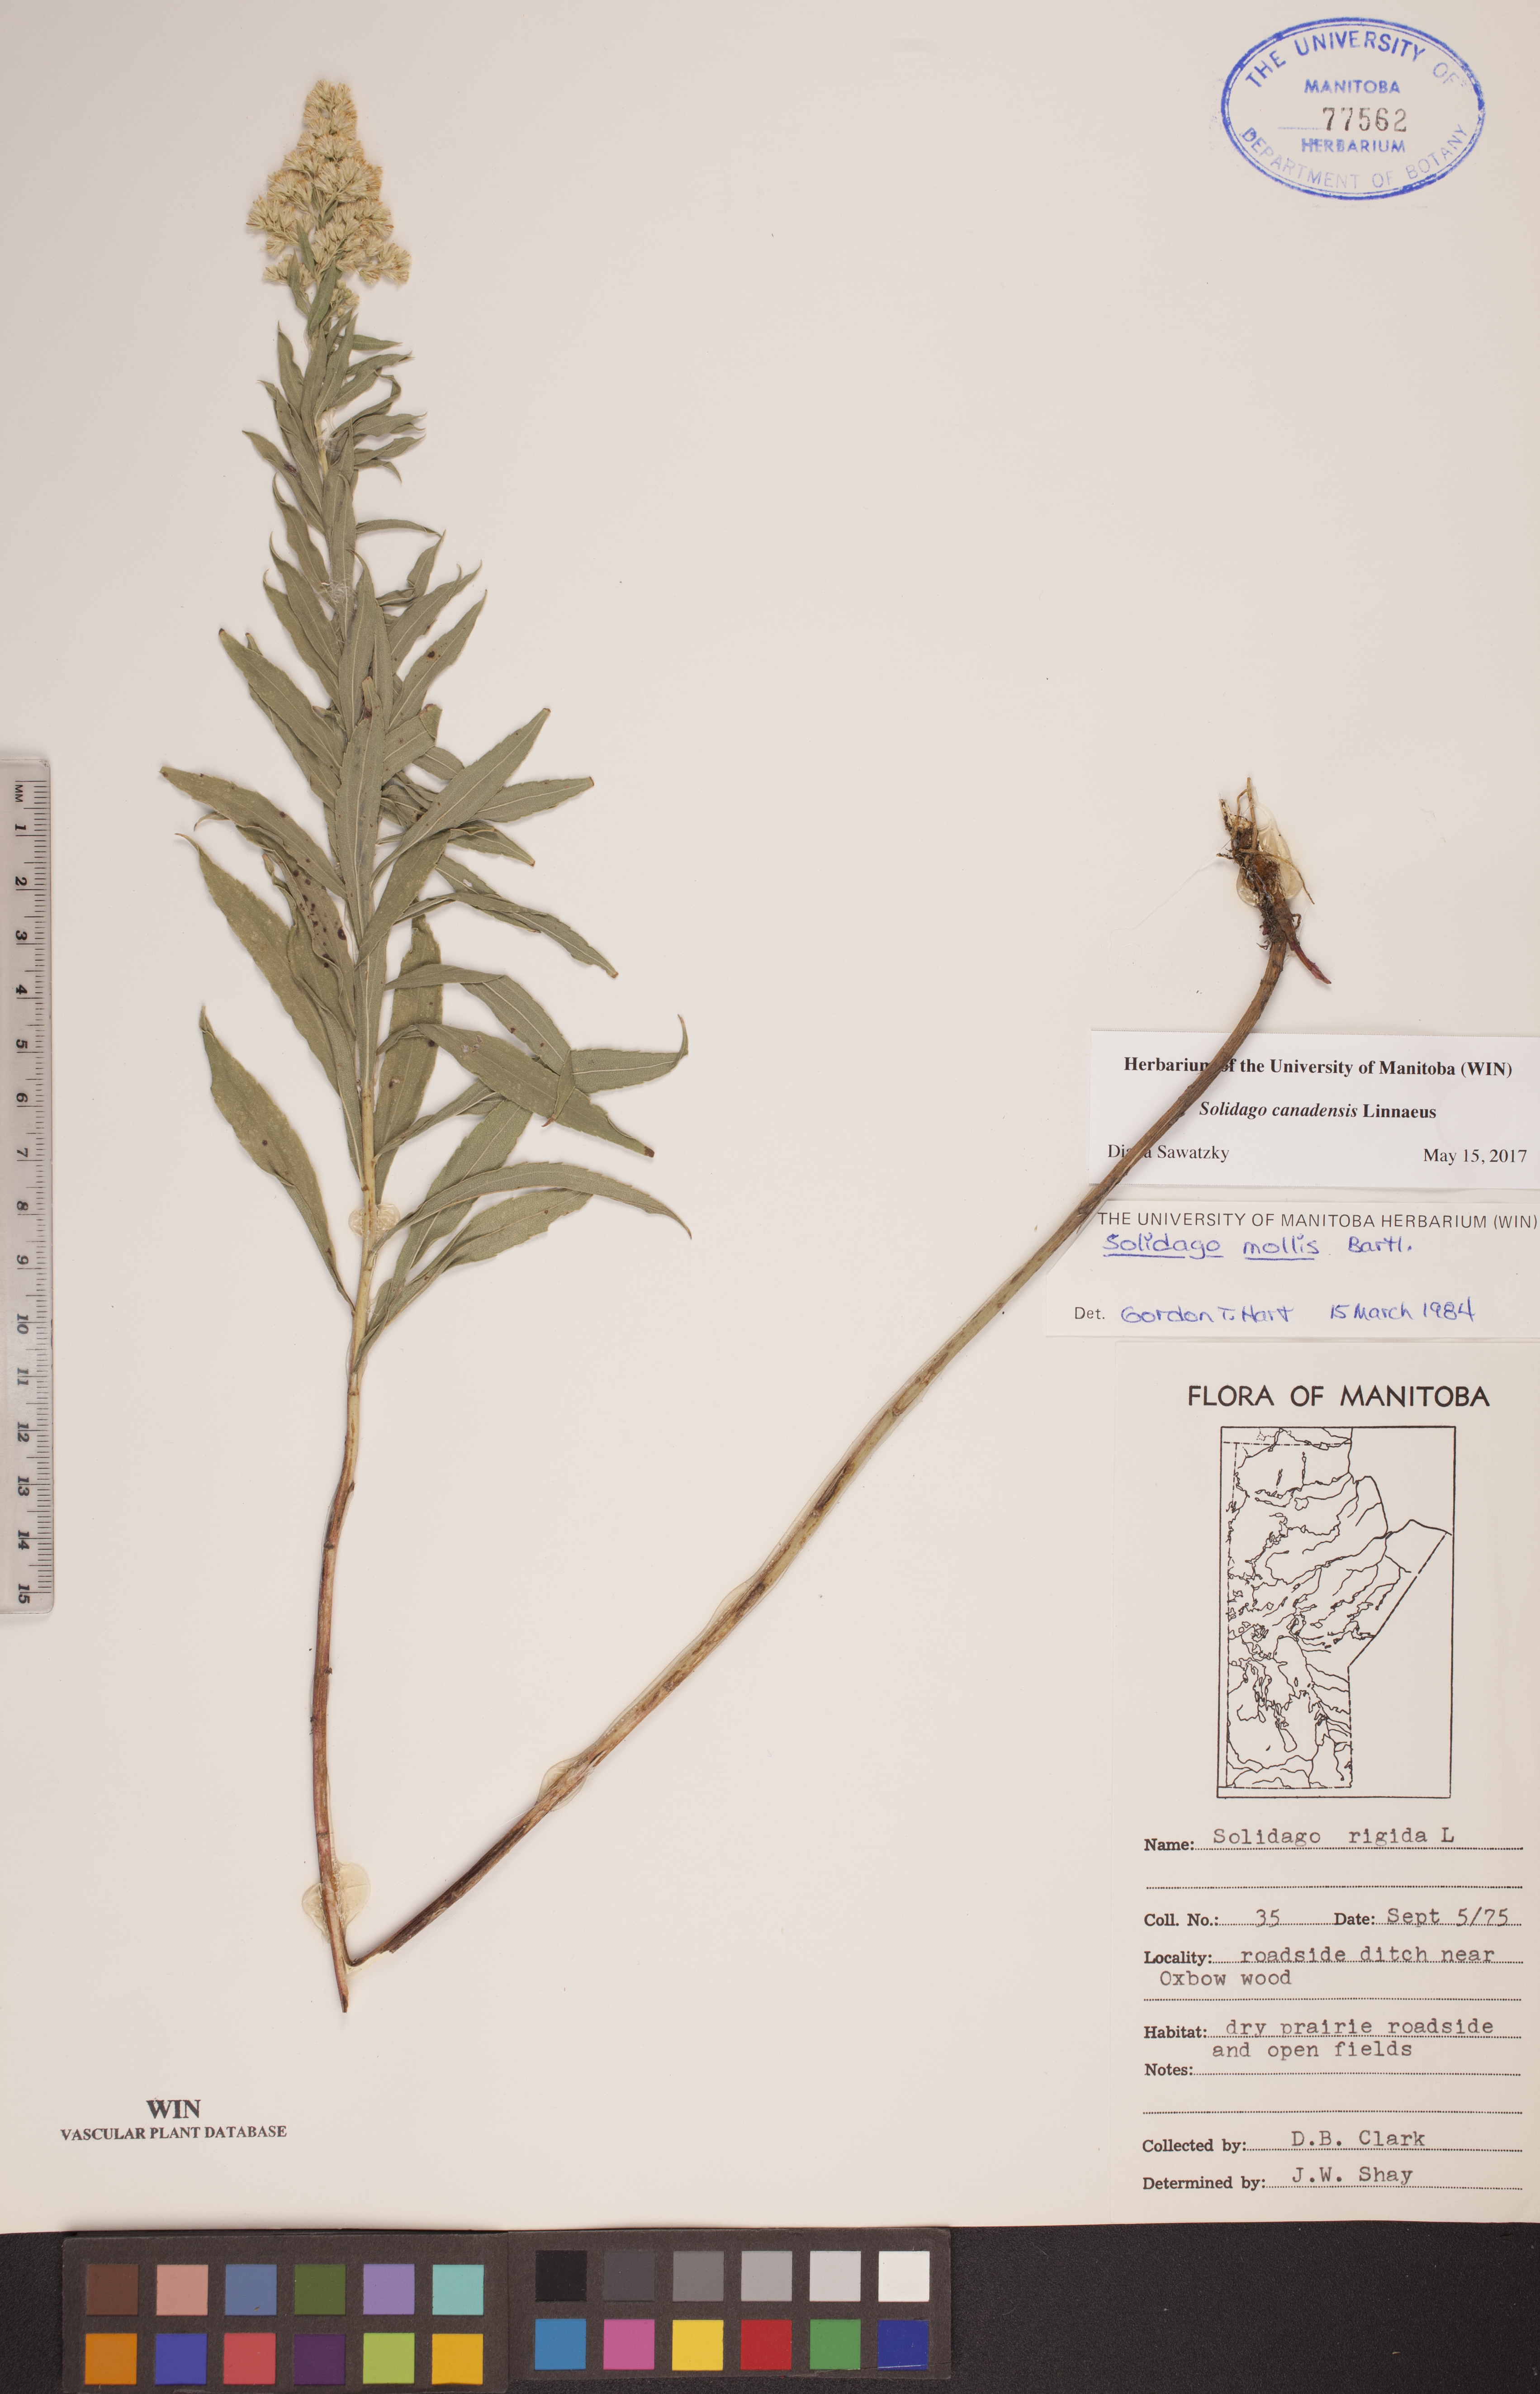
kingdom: Plantae
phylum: Tracheophyta
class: Magnoliopsida
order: Asterales
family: Asteraceae
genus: Solidago
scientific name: Solidago canadensis
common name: Canada goldenrod
